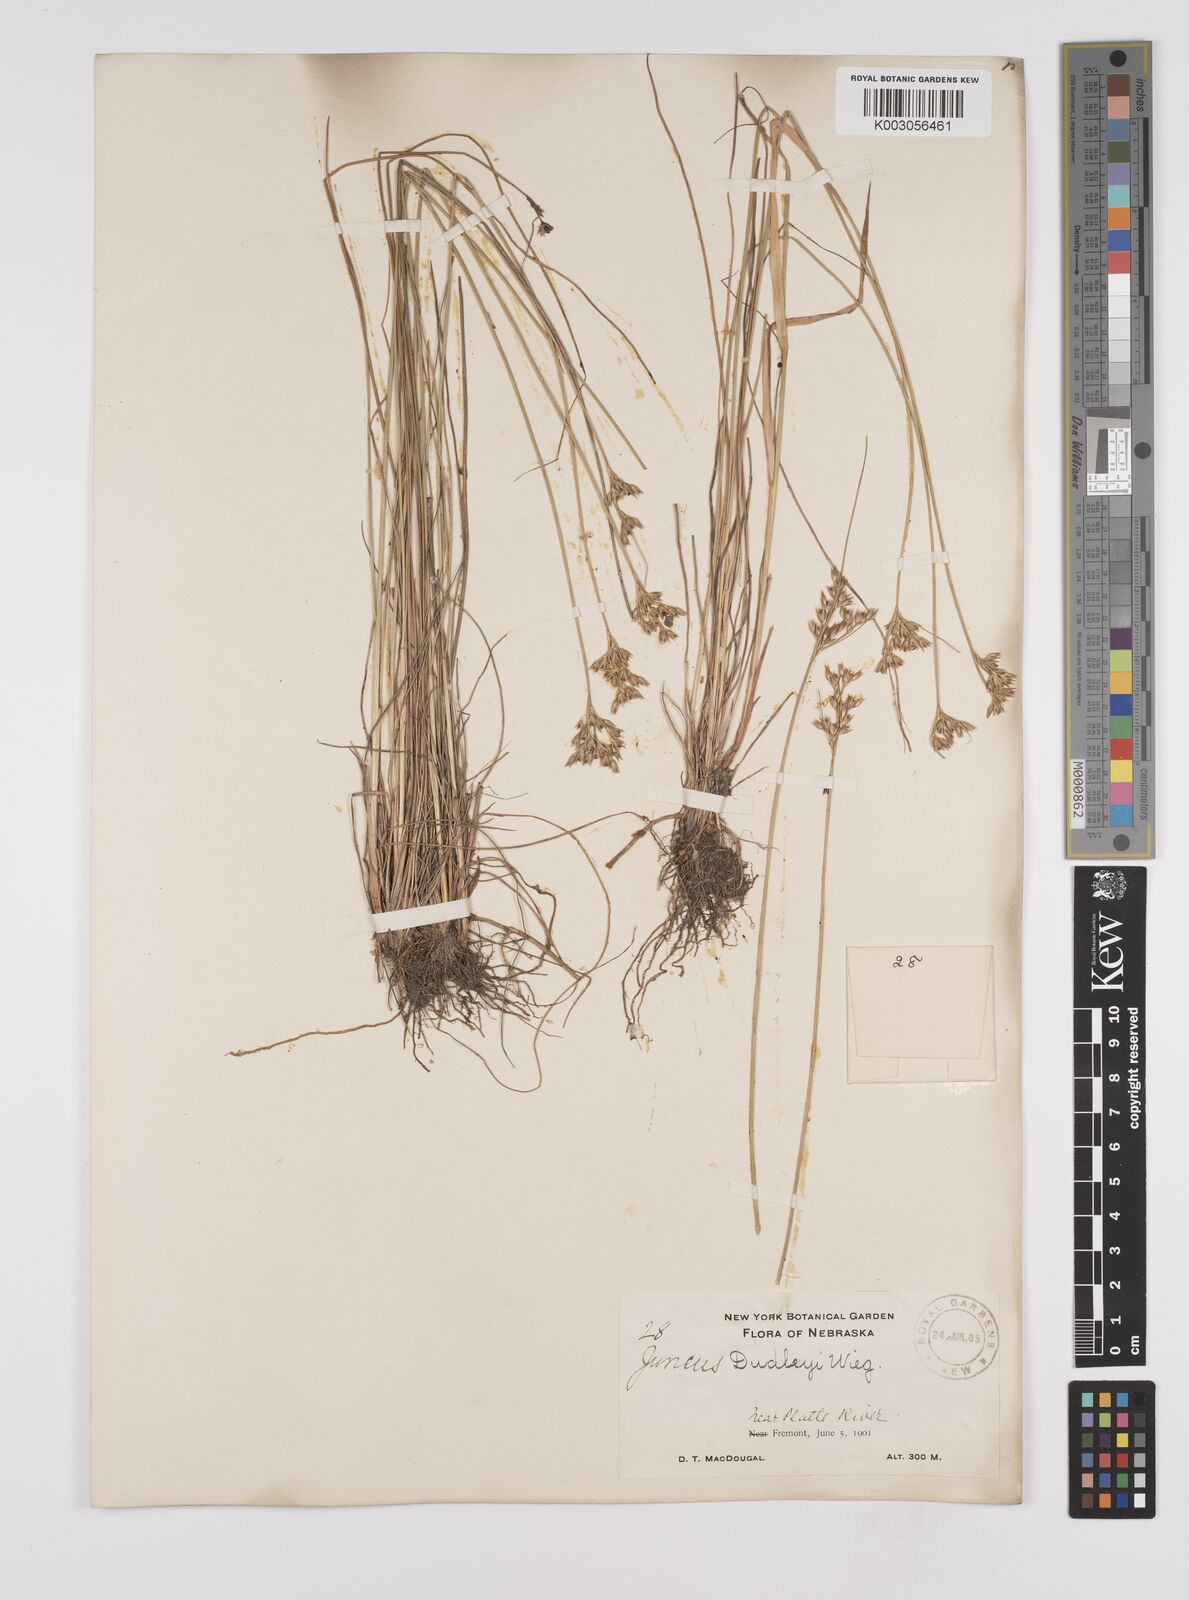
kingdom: Plantae
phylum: Tracheophyta
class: Liliopsida
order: Poales
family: Juncaceae
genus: Juncus
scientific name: Juncus dudleyi
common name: Dudley's rush
